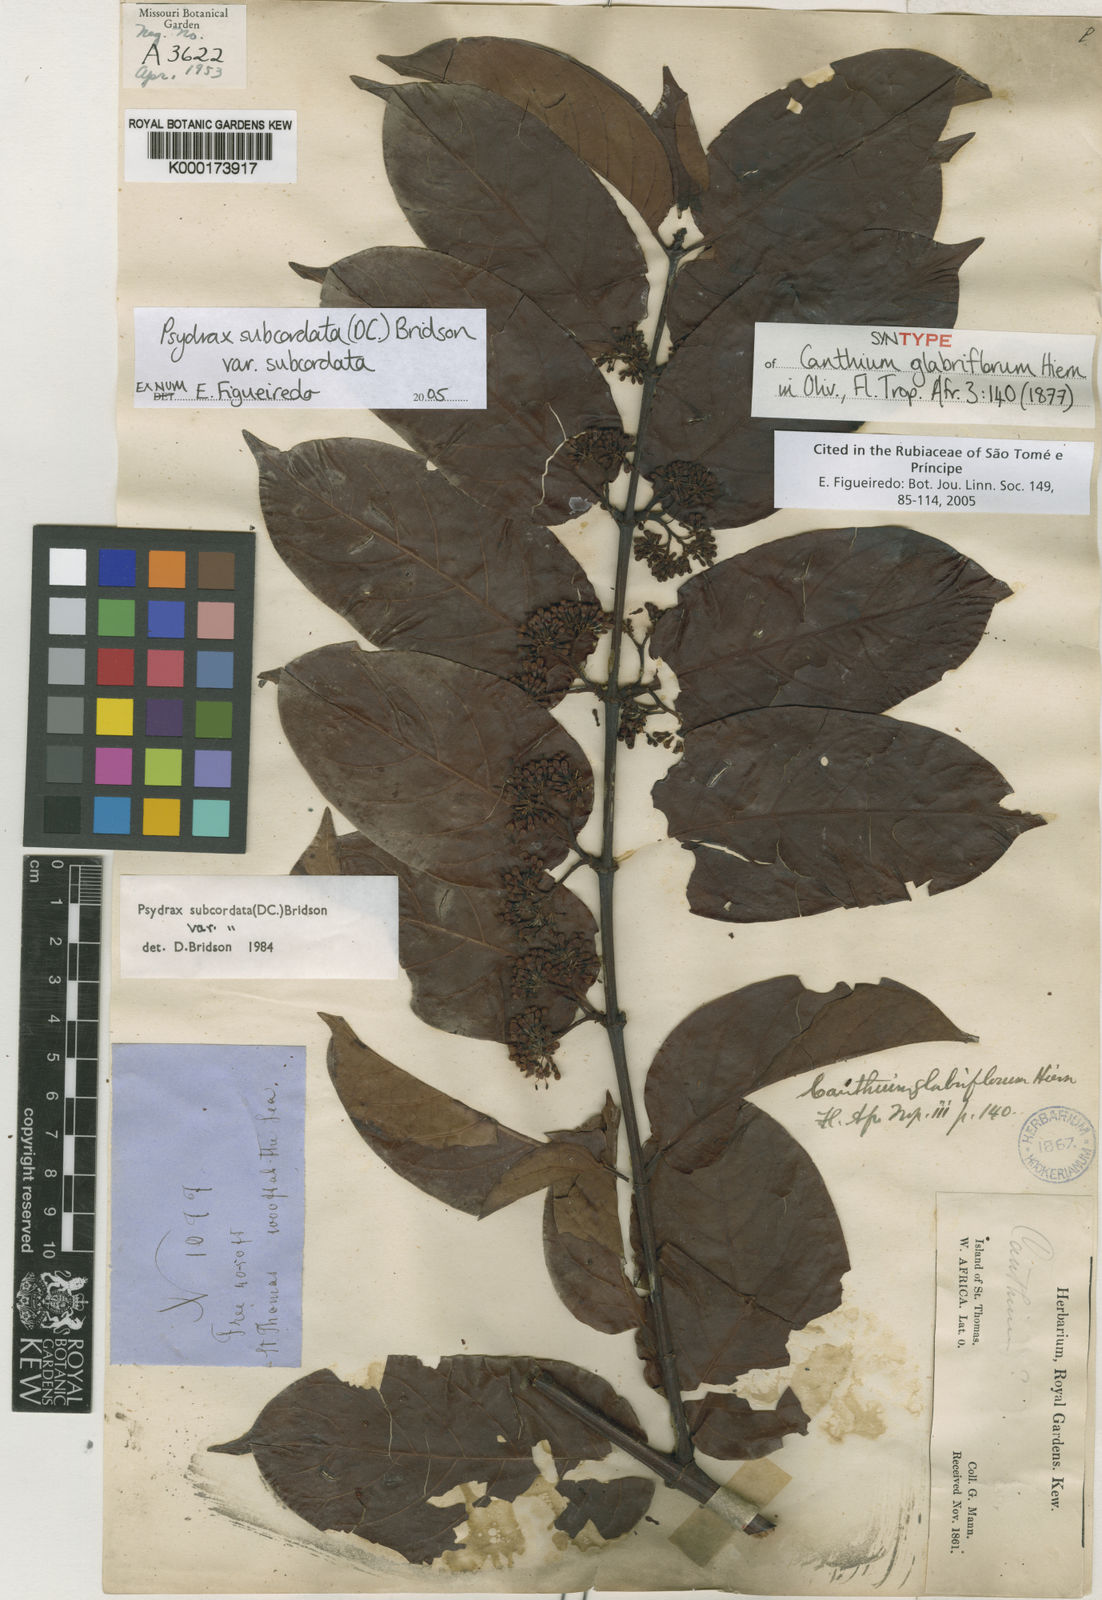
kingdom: Plantae
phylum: Tracheophyta
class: Magnoliopsida
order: Gentianales
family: Rubiaceae
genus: Psydrax
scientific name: Psydrax subcordatus
